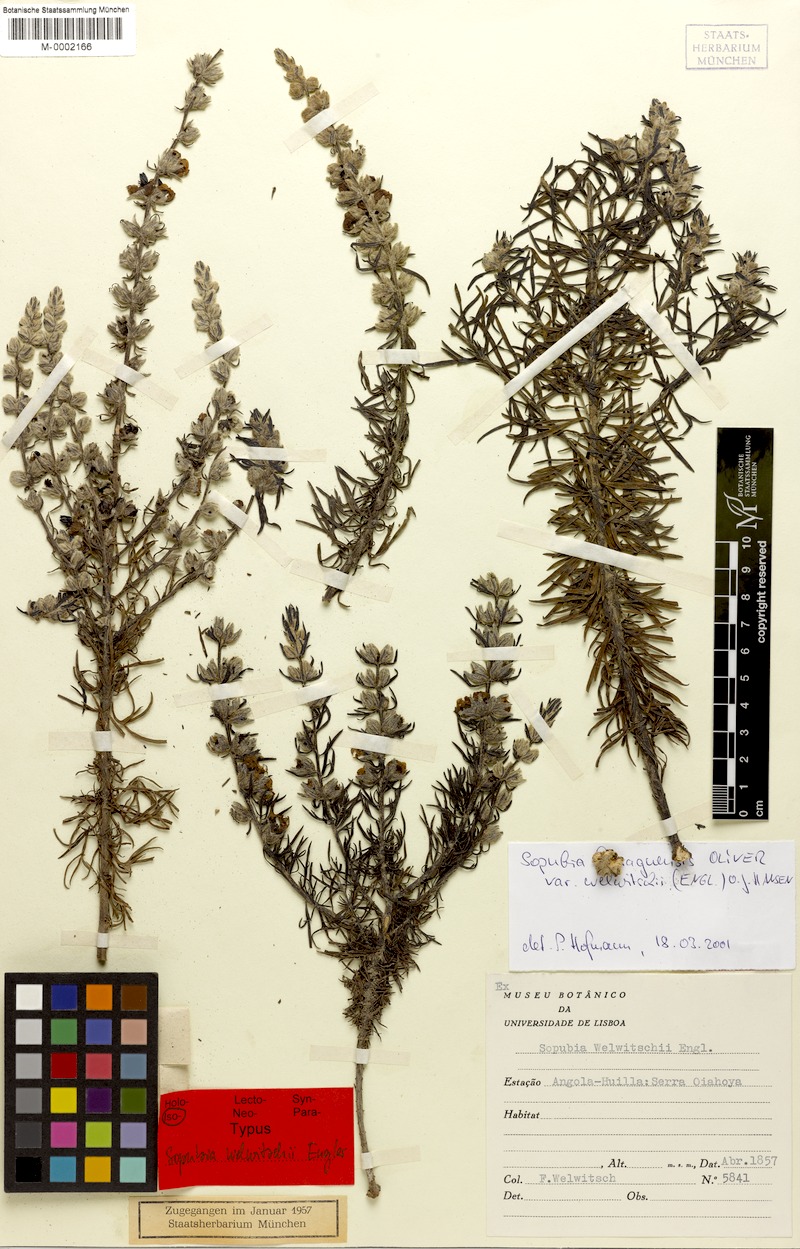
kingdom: Plantae
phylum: Tracheophyta
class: Magnoliopsida
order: Lamiales
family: Orobanchaceae
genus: Sopubia
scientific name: Sopubia karaguensis
